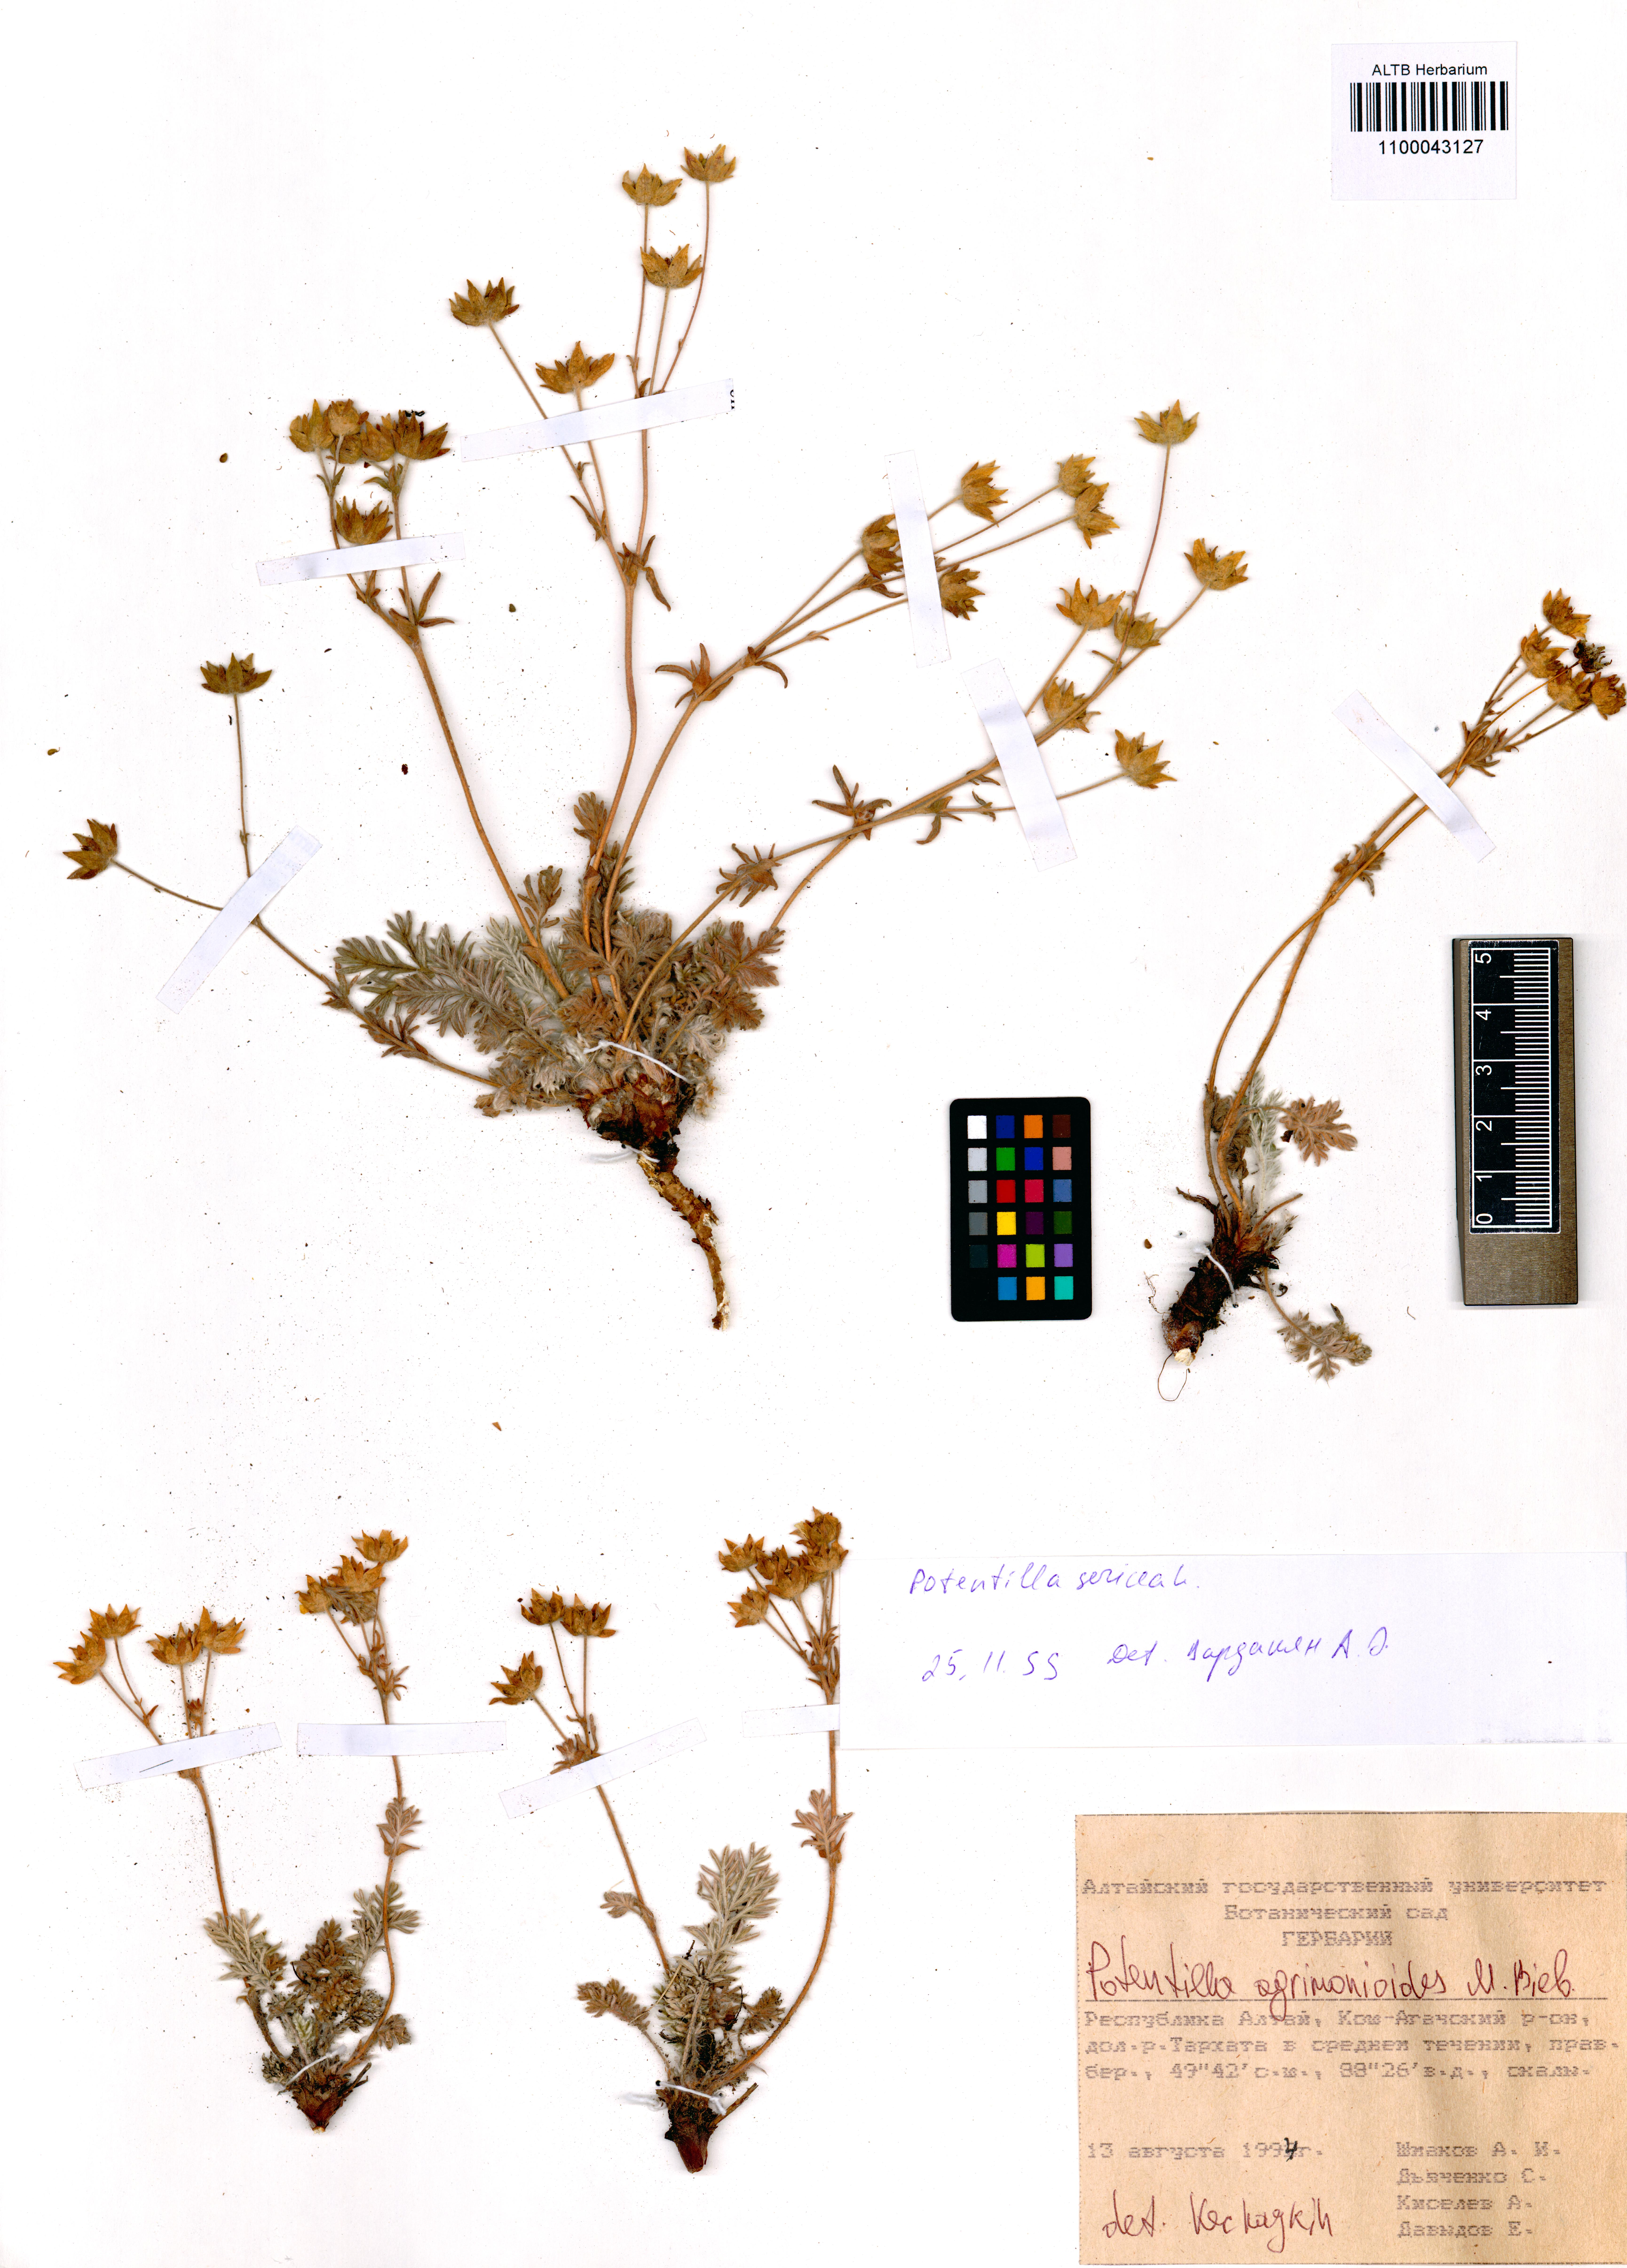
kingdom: Plantae
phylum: Tracheophyta
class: Magnoliopsida
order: Rosales
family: Rosaceae
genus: Potentilla
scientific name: Potentilla agrimonioides
